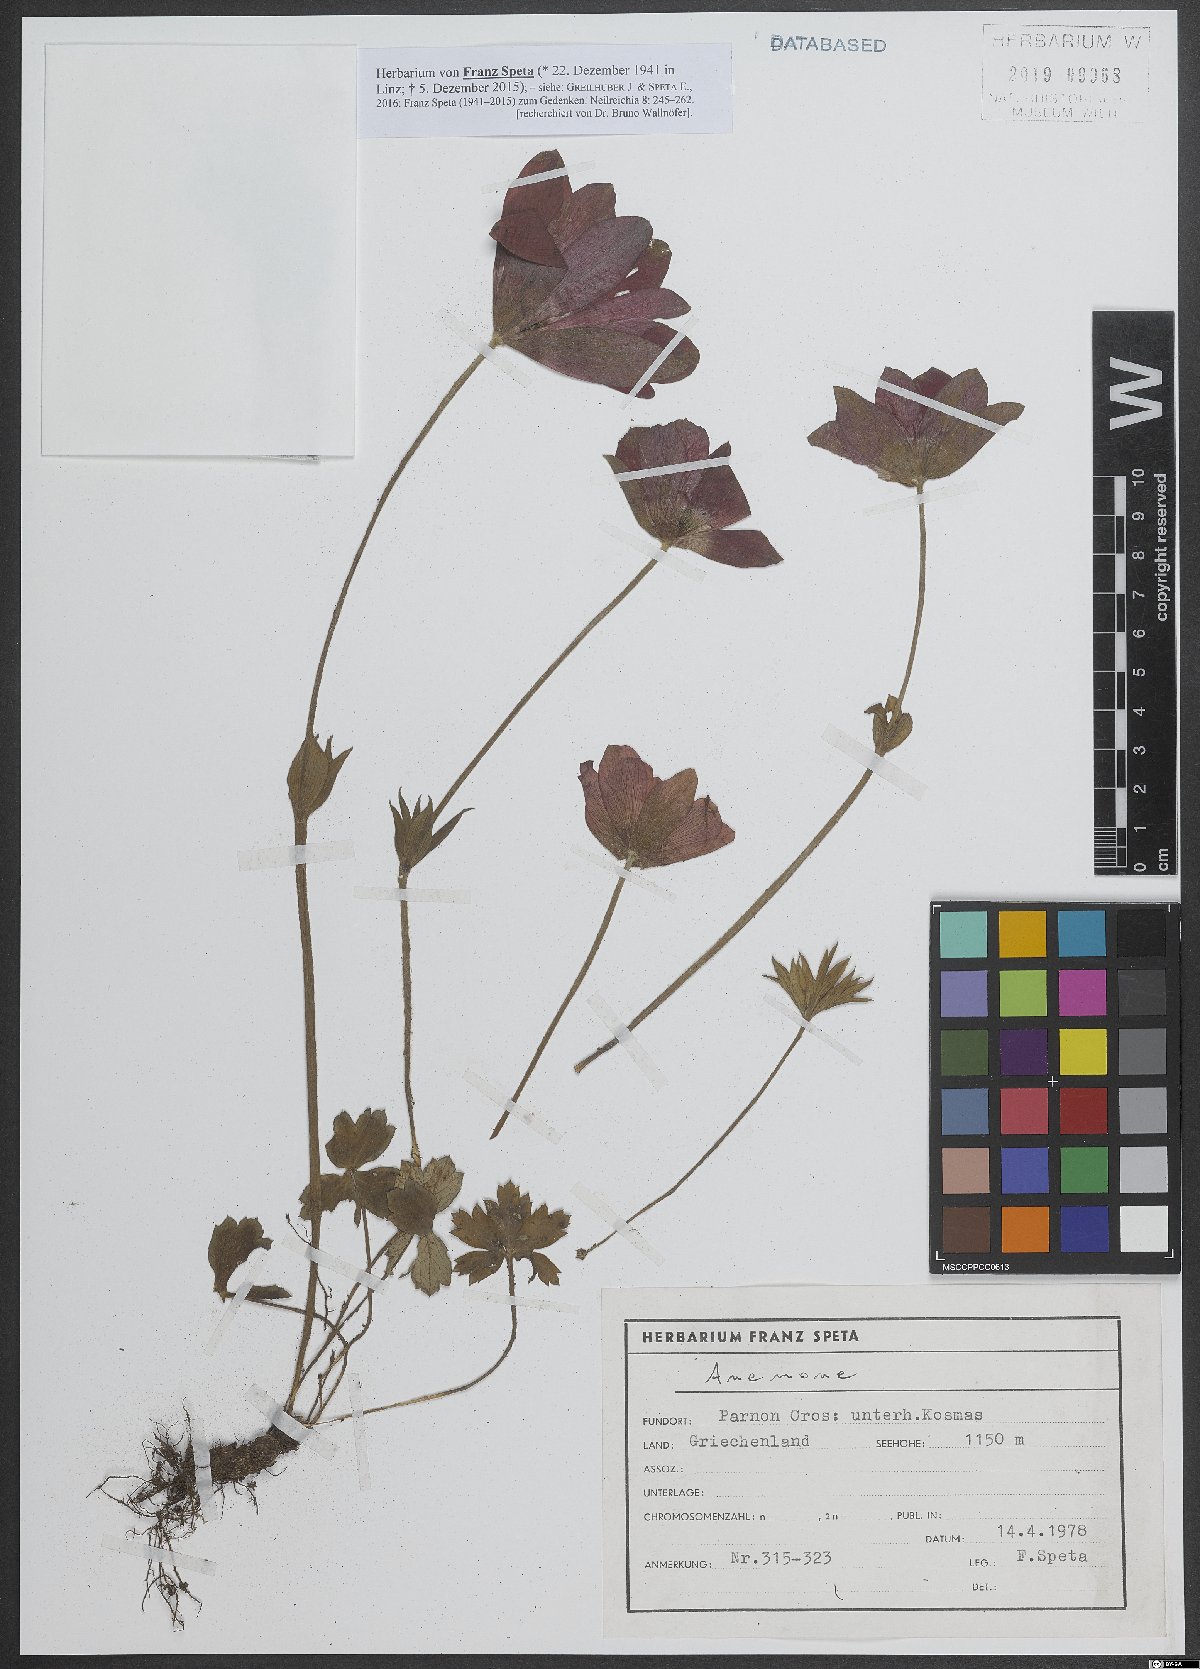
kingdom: Plantae
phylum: Tracheophyta
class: Magnoliopsida
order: Ranunculales
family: Ranunculaceae
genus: Anemone
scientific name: Anemone
